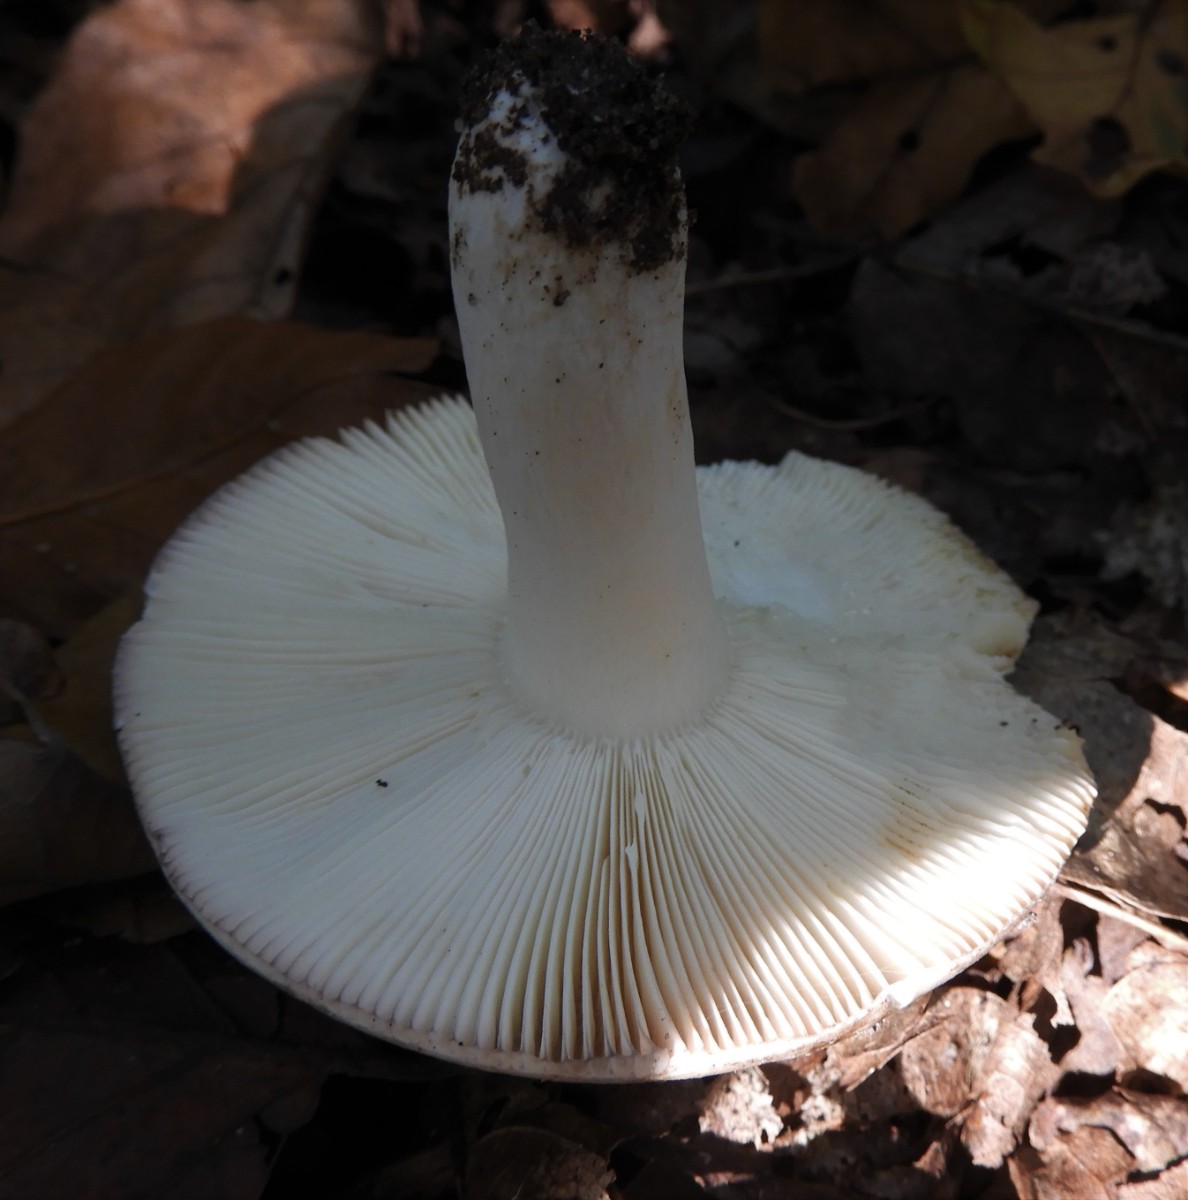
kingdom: Fungi
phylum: Basidiomycota
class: Agaricomycetes
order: Russulales
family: Russulaceae
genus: Russula
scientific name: Russula virescens
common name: spanskgrøn skørhat
